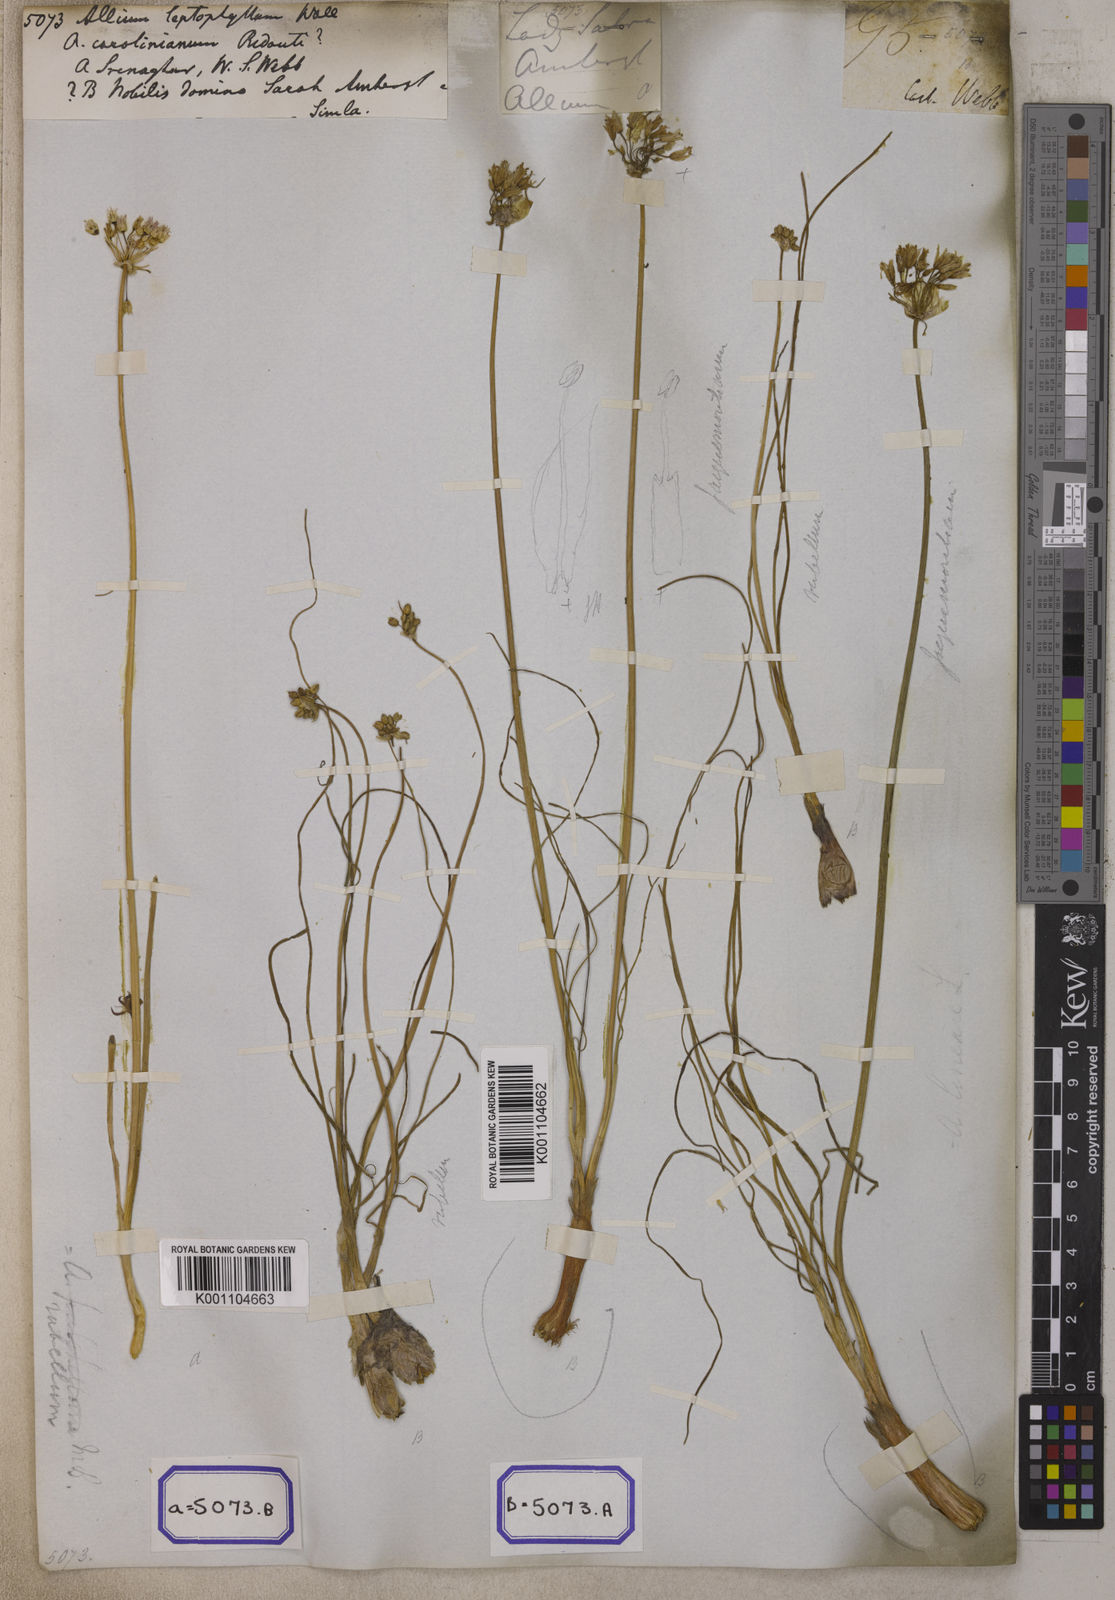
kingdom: Plantae
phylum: Tracheophyta
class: Liliopsida
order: Asparagales
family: Amaryllidaceae
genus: Allium
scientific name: Allium rubellum
